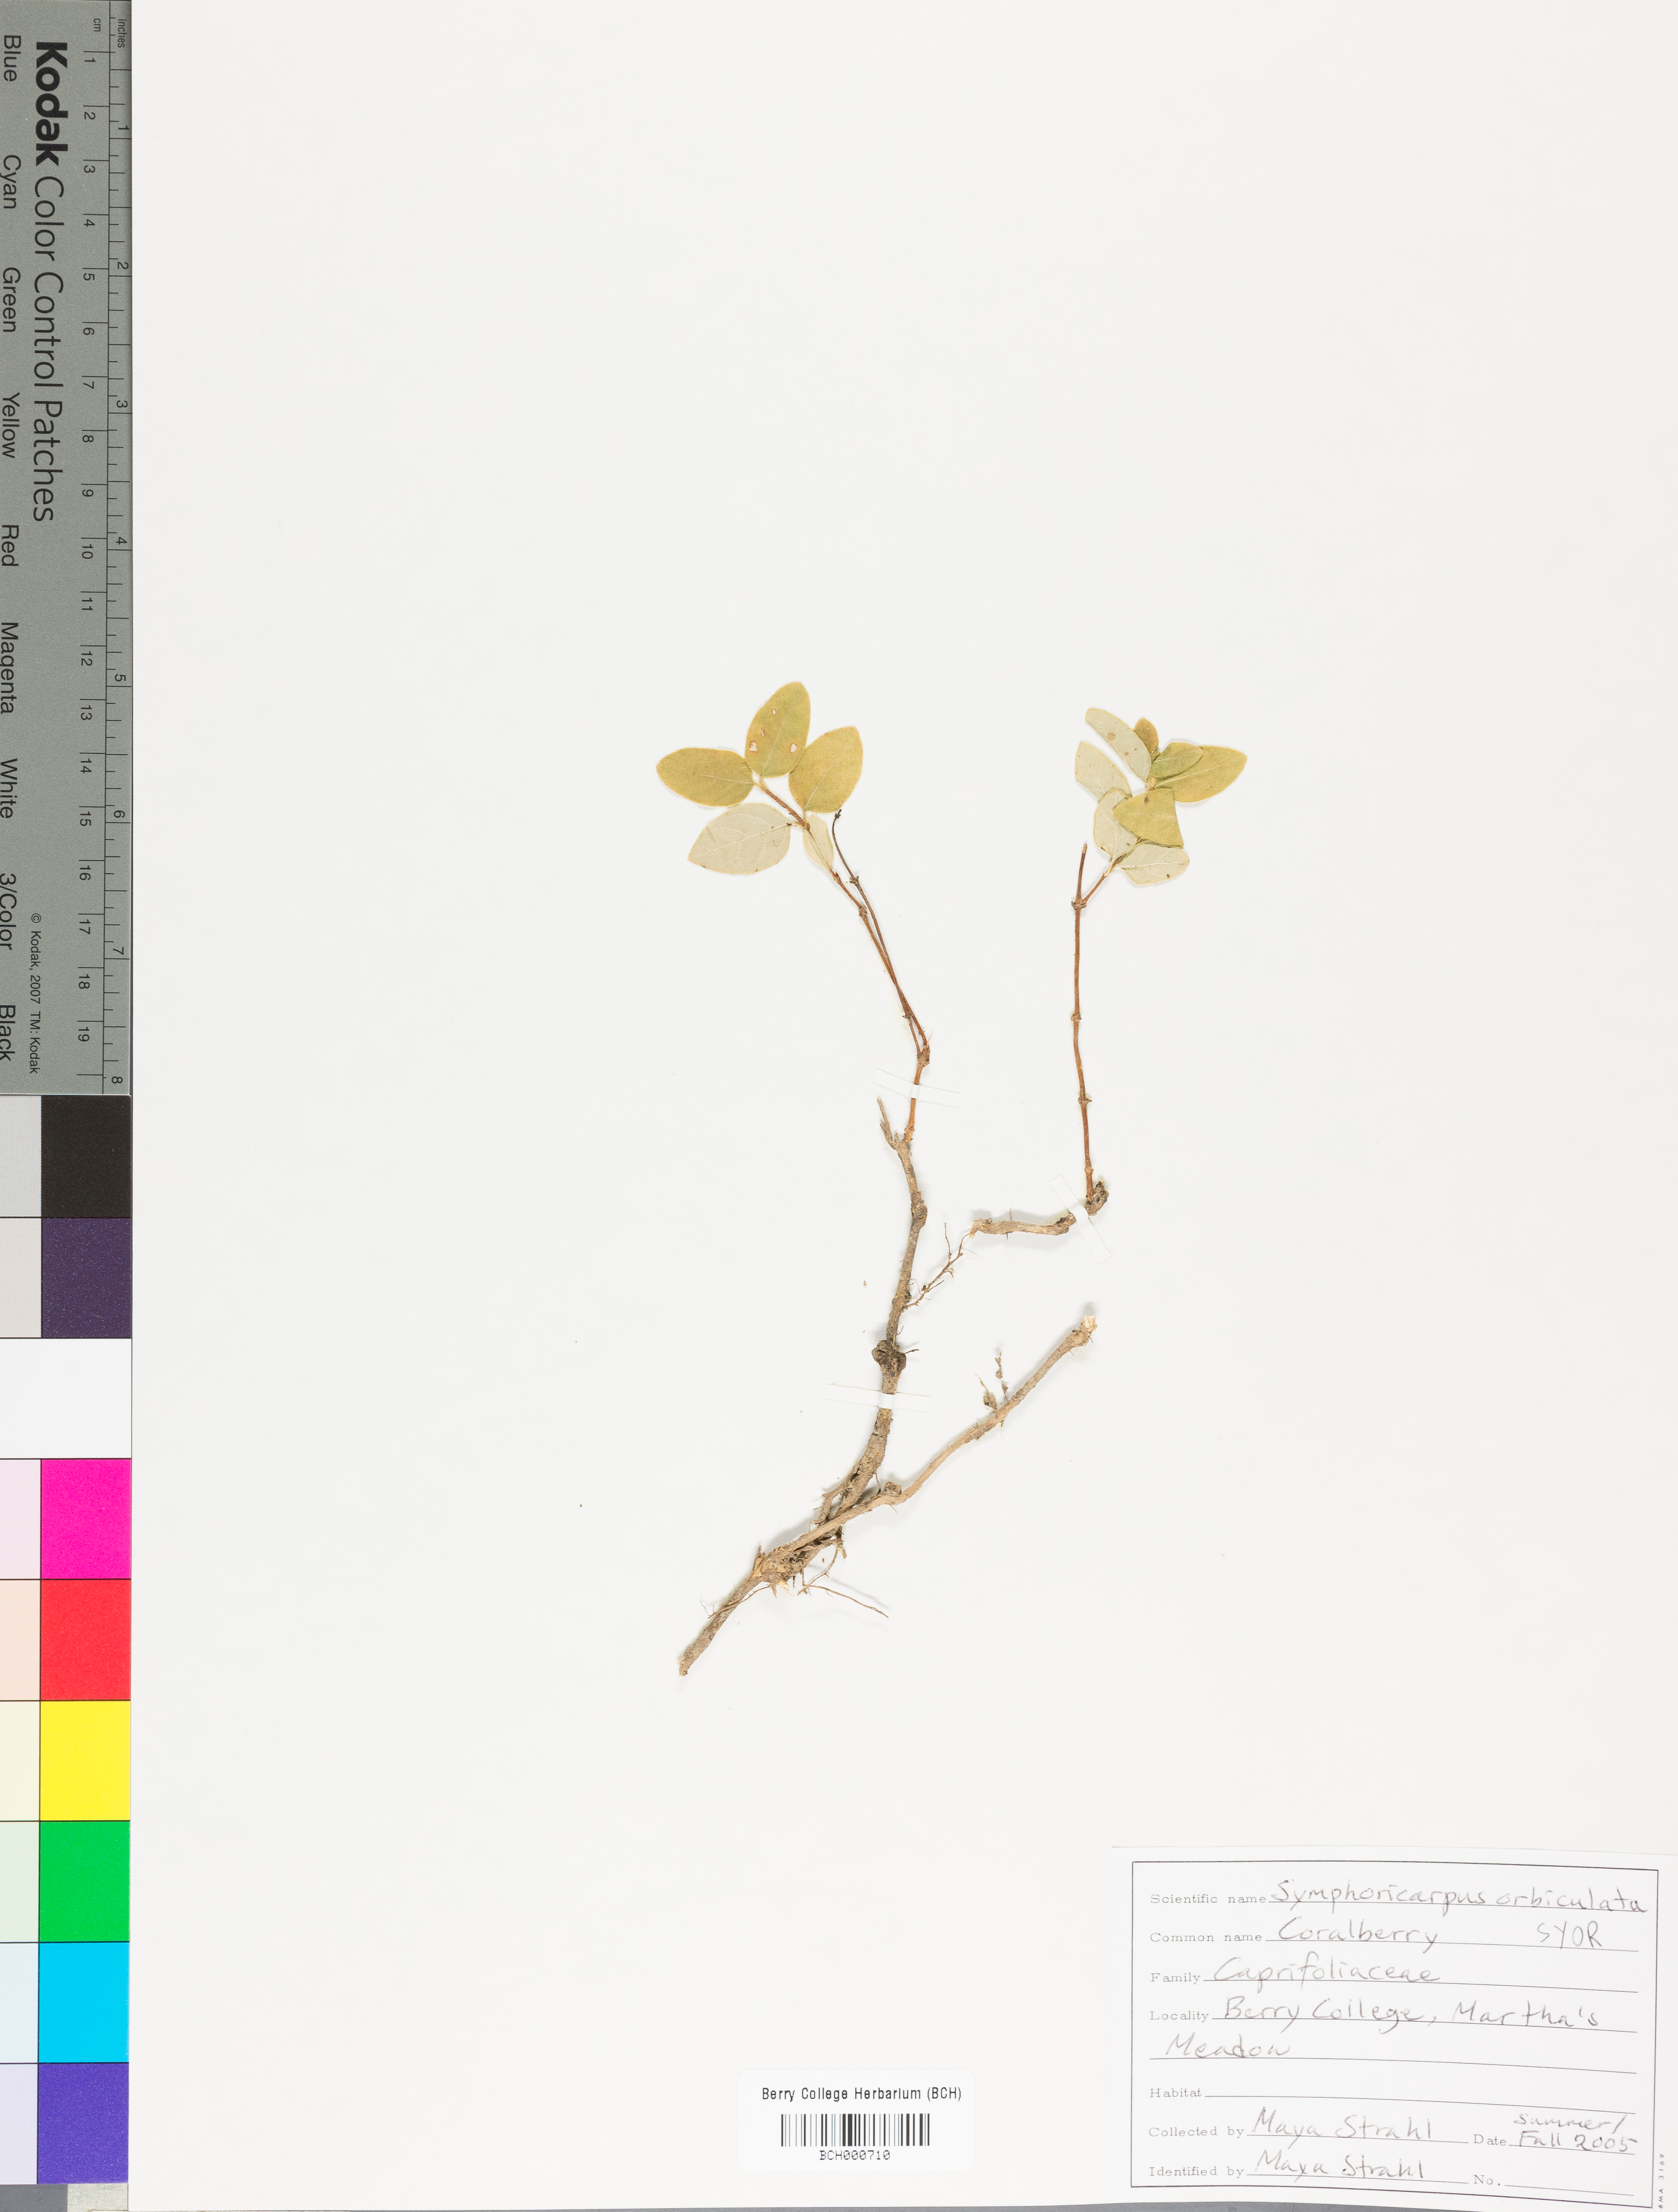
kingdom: Plantae
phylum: Tracheophyta
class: Magnoliopsida
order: Dipsacales
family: Caprifoliaceae
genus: Symphoricarpos
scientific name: Symphoricarpos orbiculatus
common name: Coralberry
